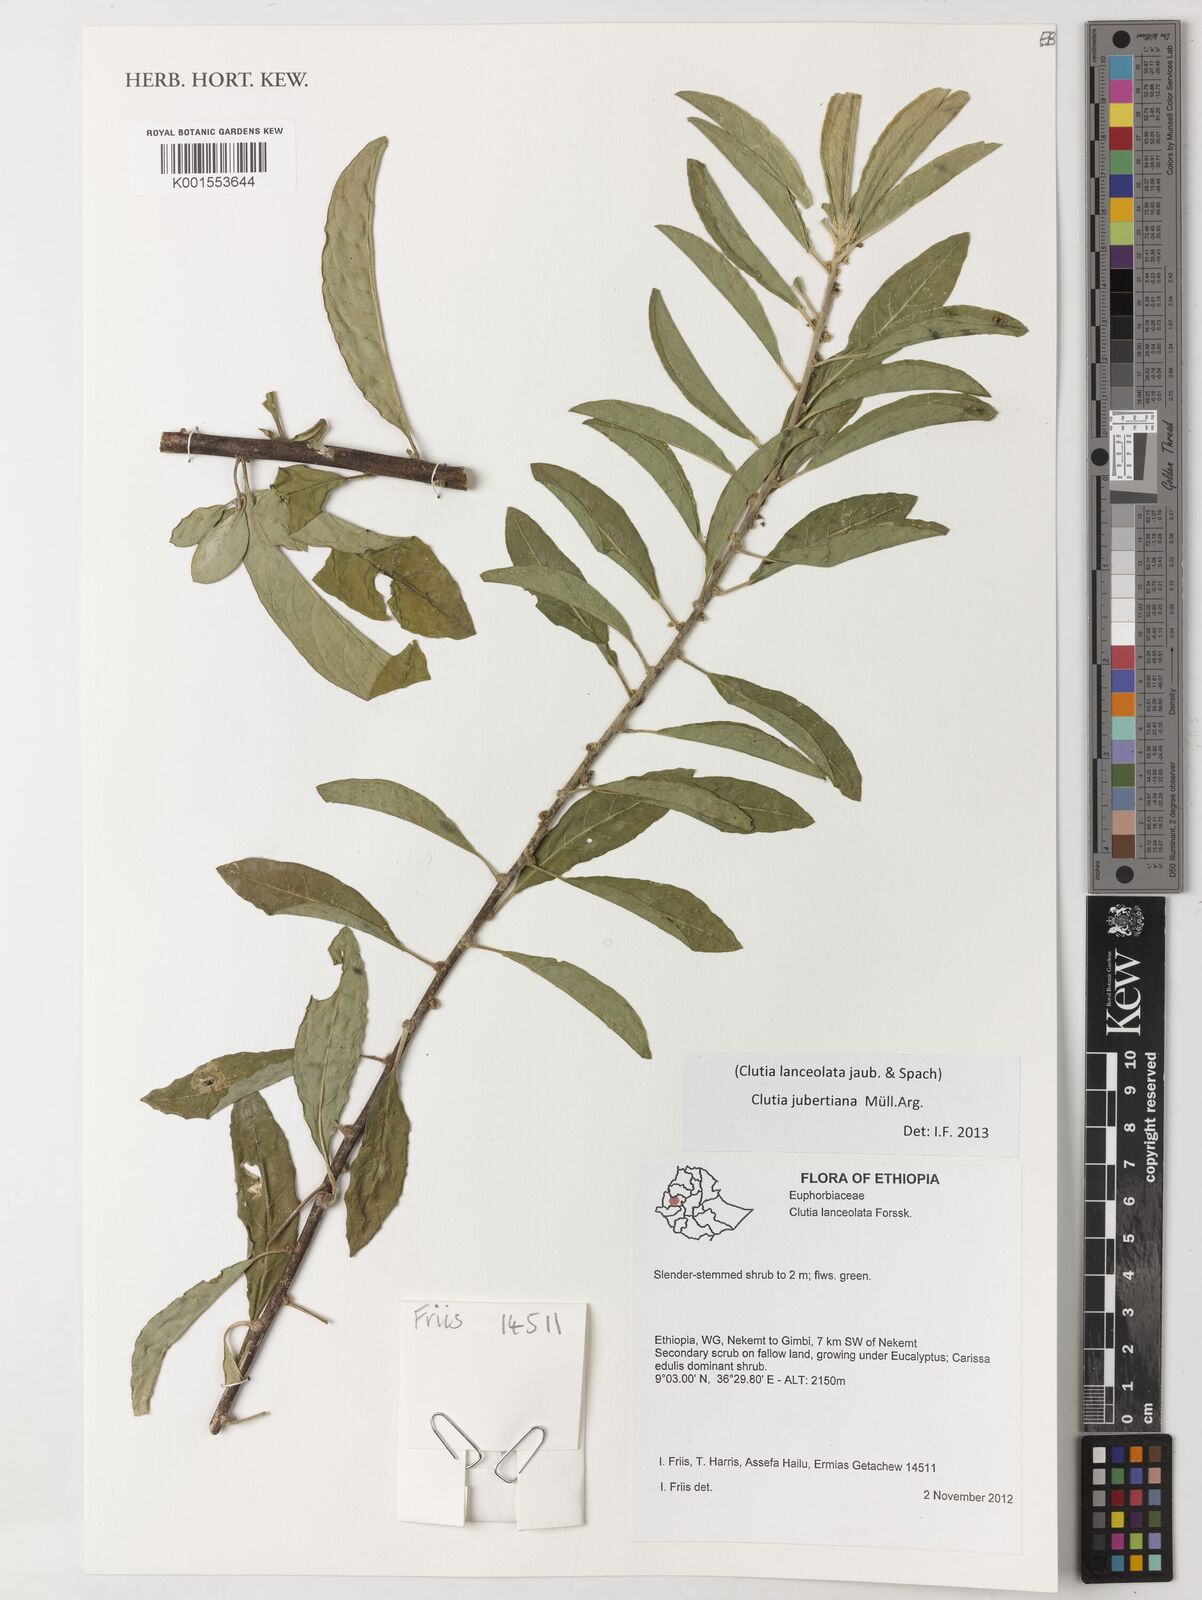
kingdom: Plantae
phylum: Tracheophyta
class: Magnoliopsida
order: Malpighiales
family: Peraceae
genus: Clutia
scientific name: Clutia jaubertiana
